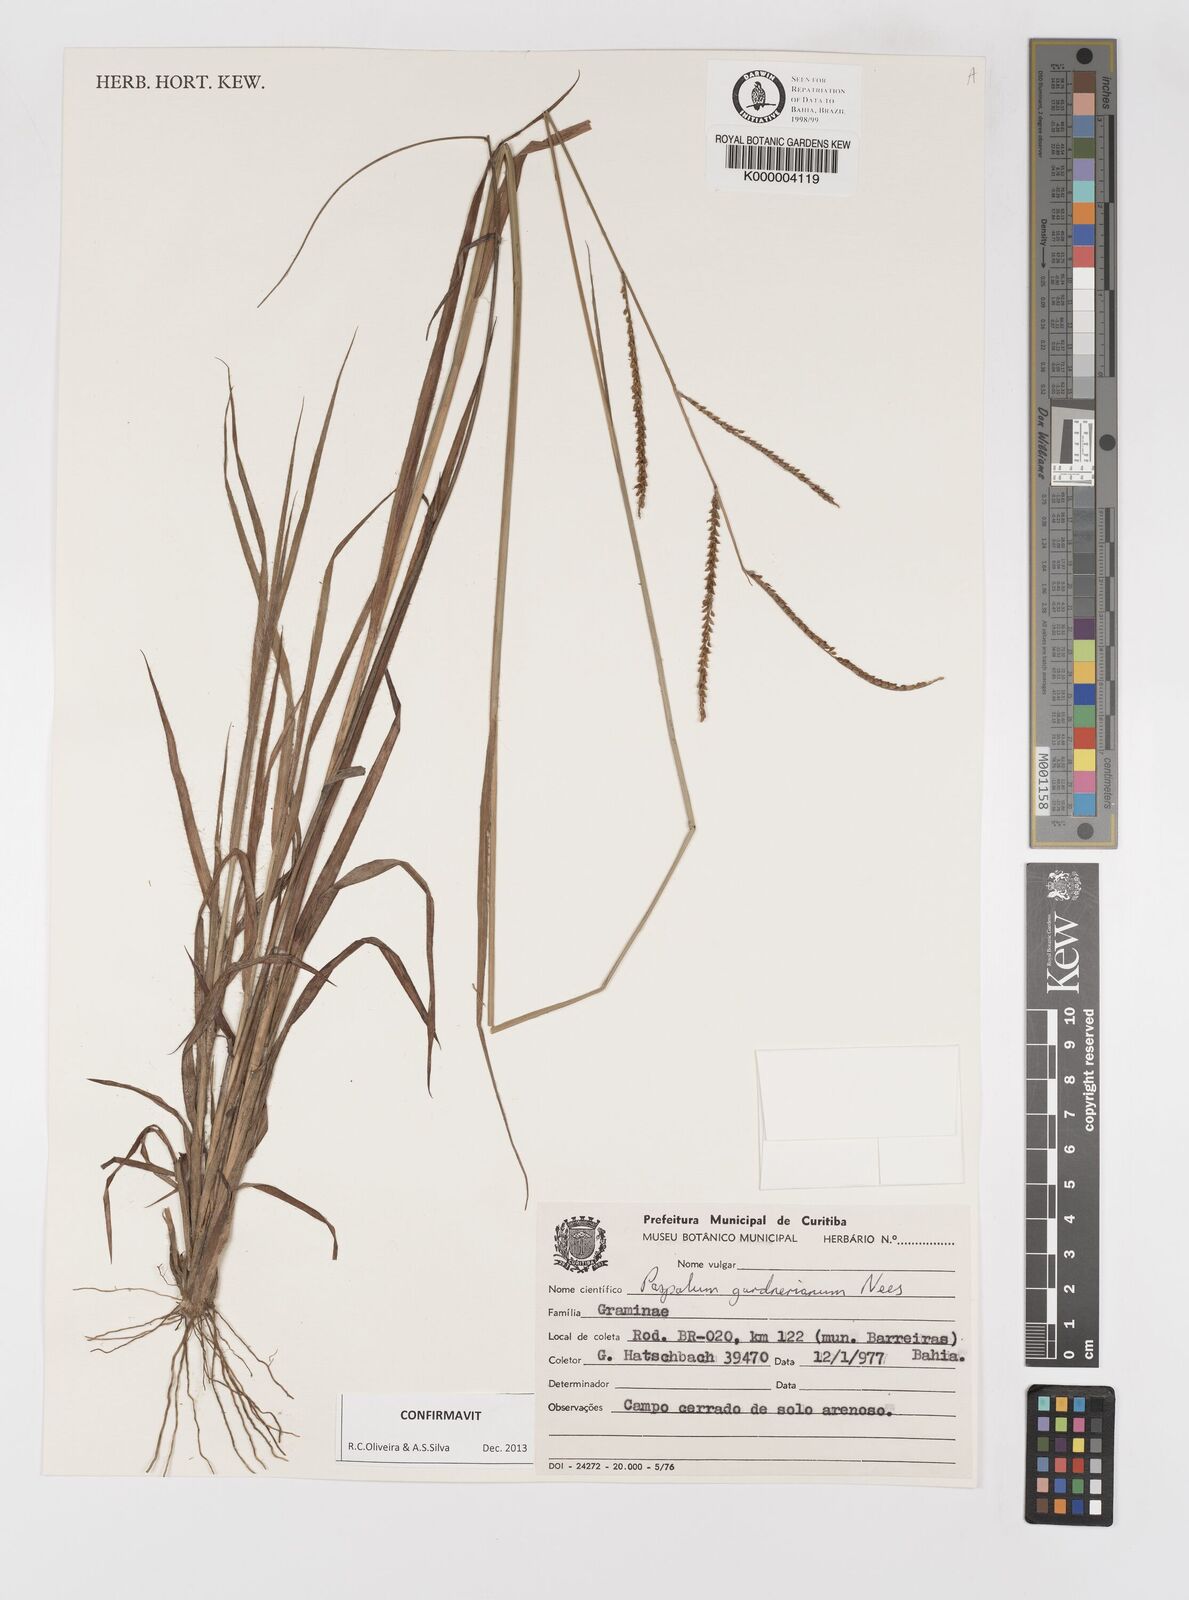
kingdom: Plantae
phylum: Tracheophyta
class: Liliopsida
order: Poales
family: Poaceae
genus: Paspalum
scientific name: Paspalum gardnerianum
